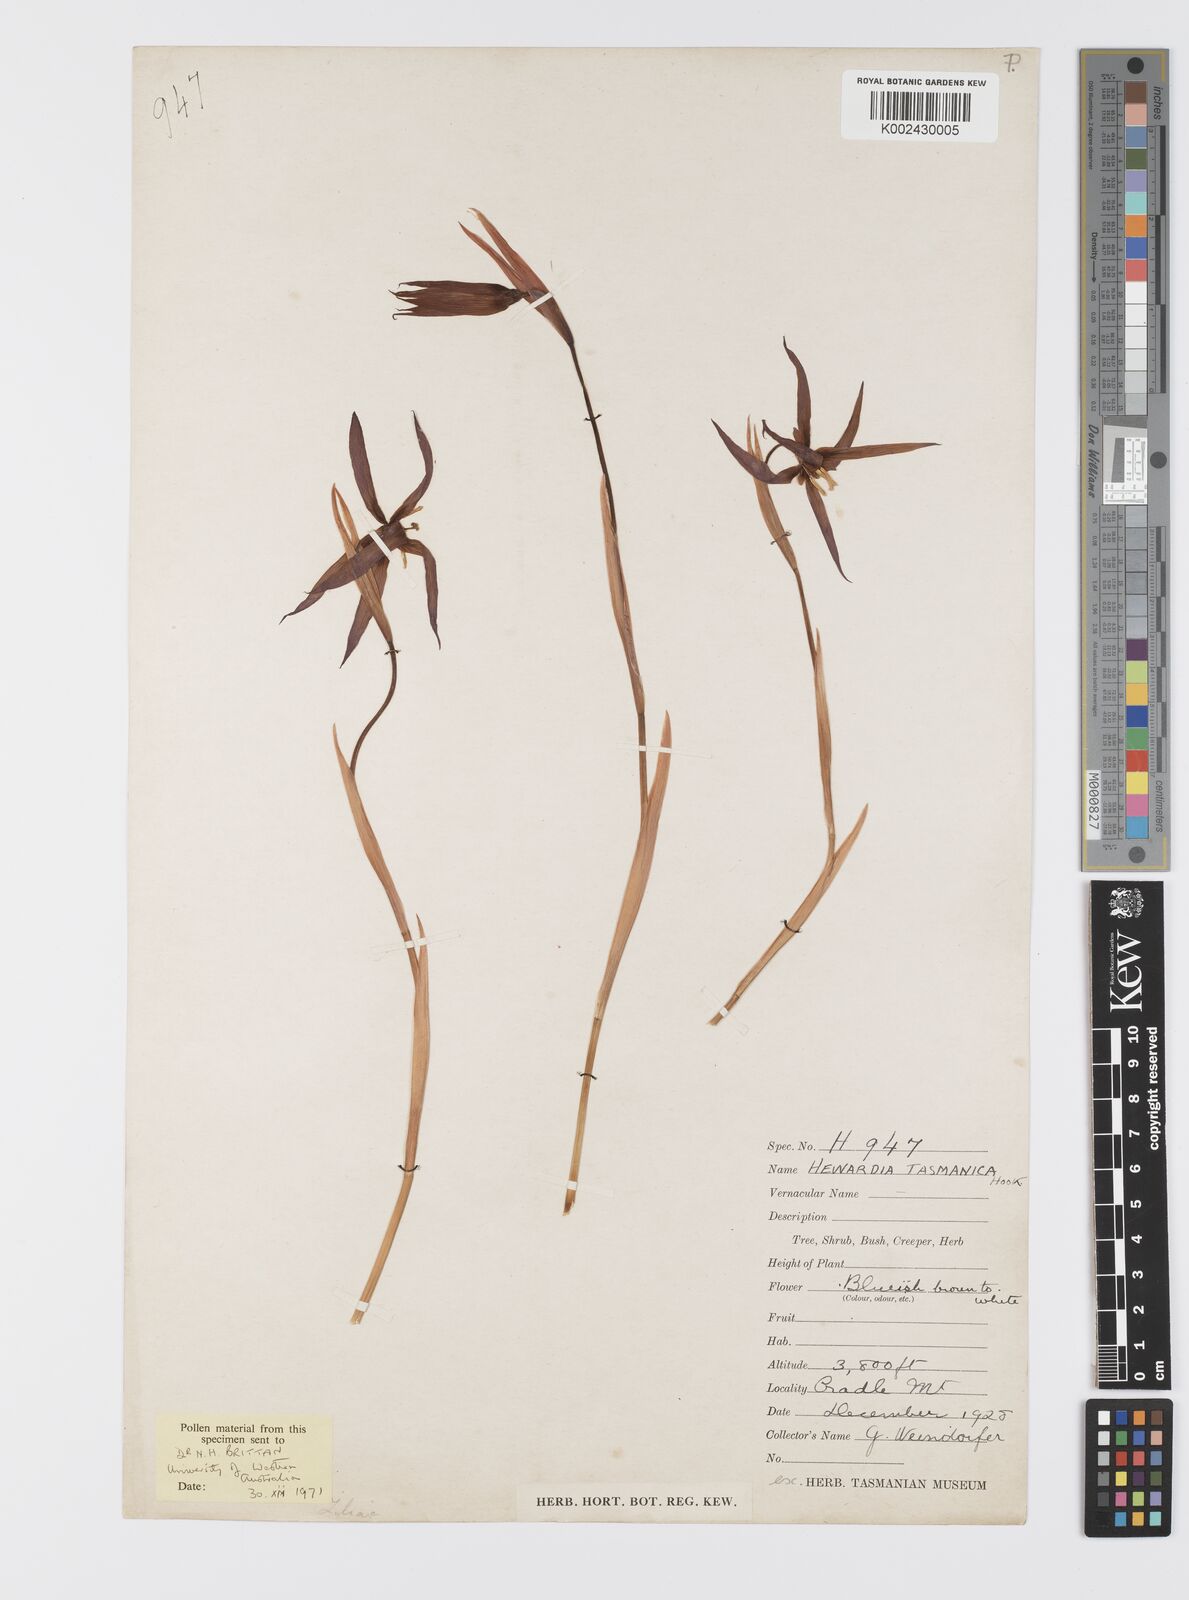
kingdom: Plantae
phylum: Tracheophyta
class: Liliopsida
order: Asparagales
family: Iridaceae
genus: Isophysis
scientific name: Isophysis tasmanica
